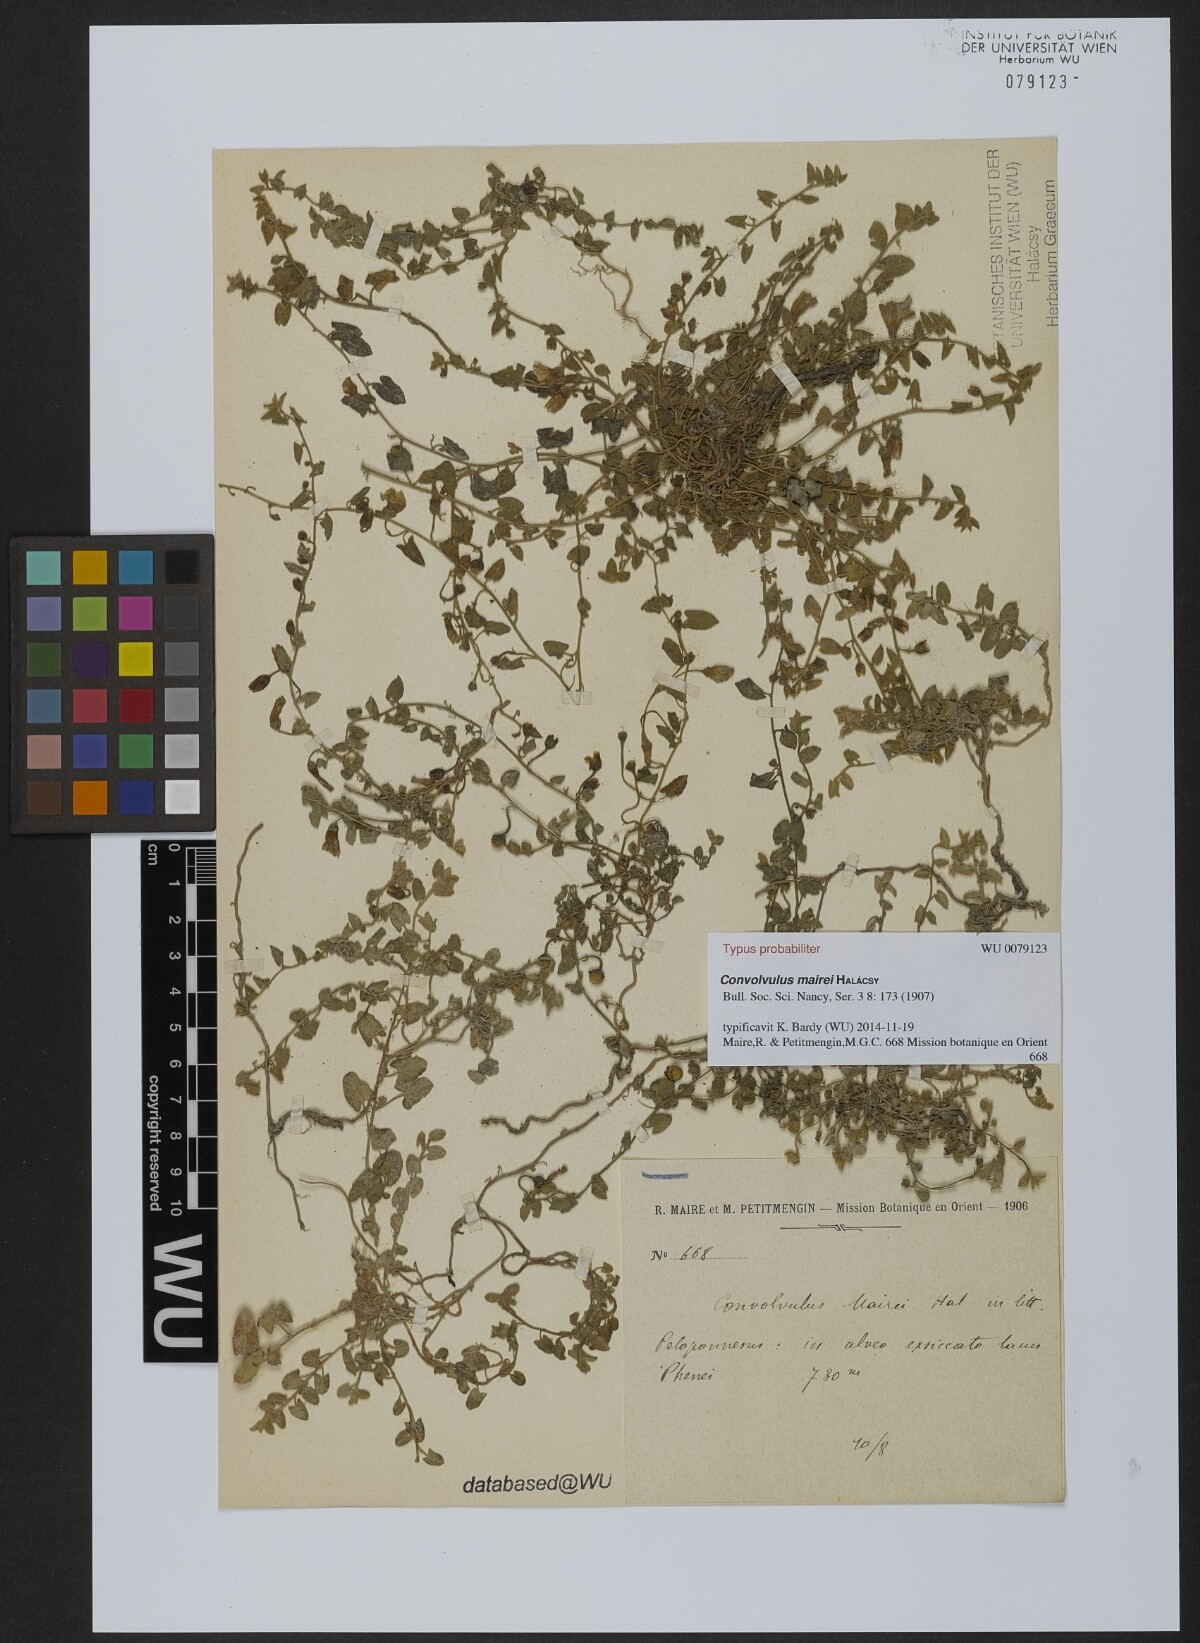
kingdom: Plantae
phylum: Tracheophyta
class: Magnoliopsida
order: Solanales
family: Convolvulaceae
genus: Convolvulus
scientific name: Convolvulus mairei
